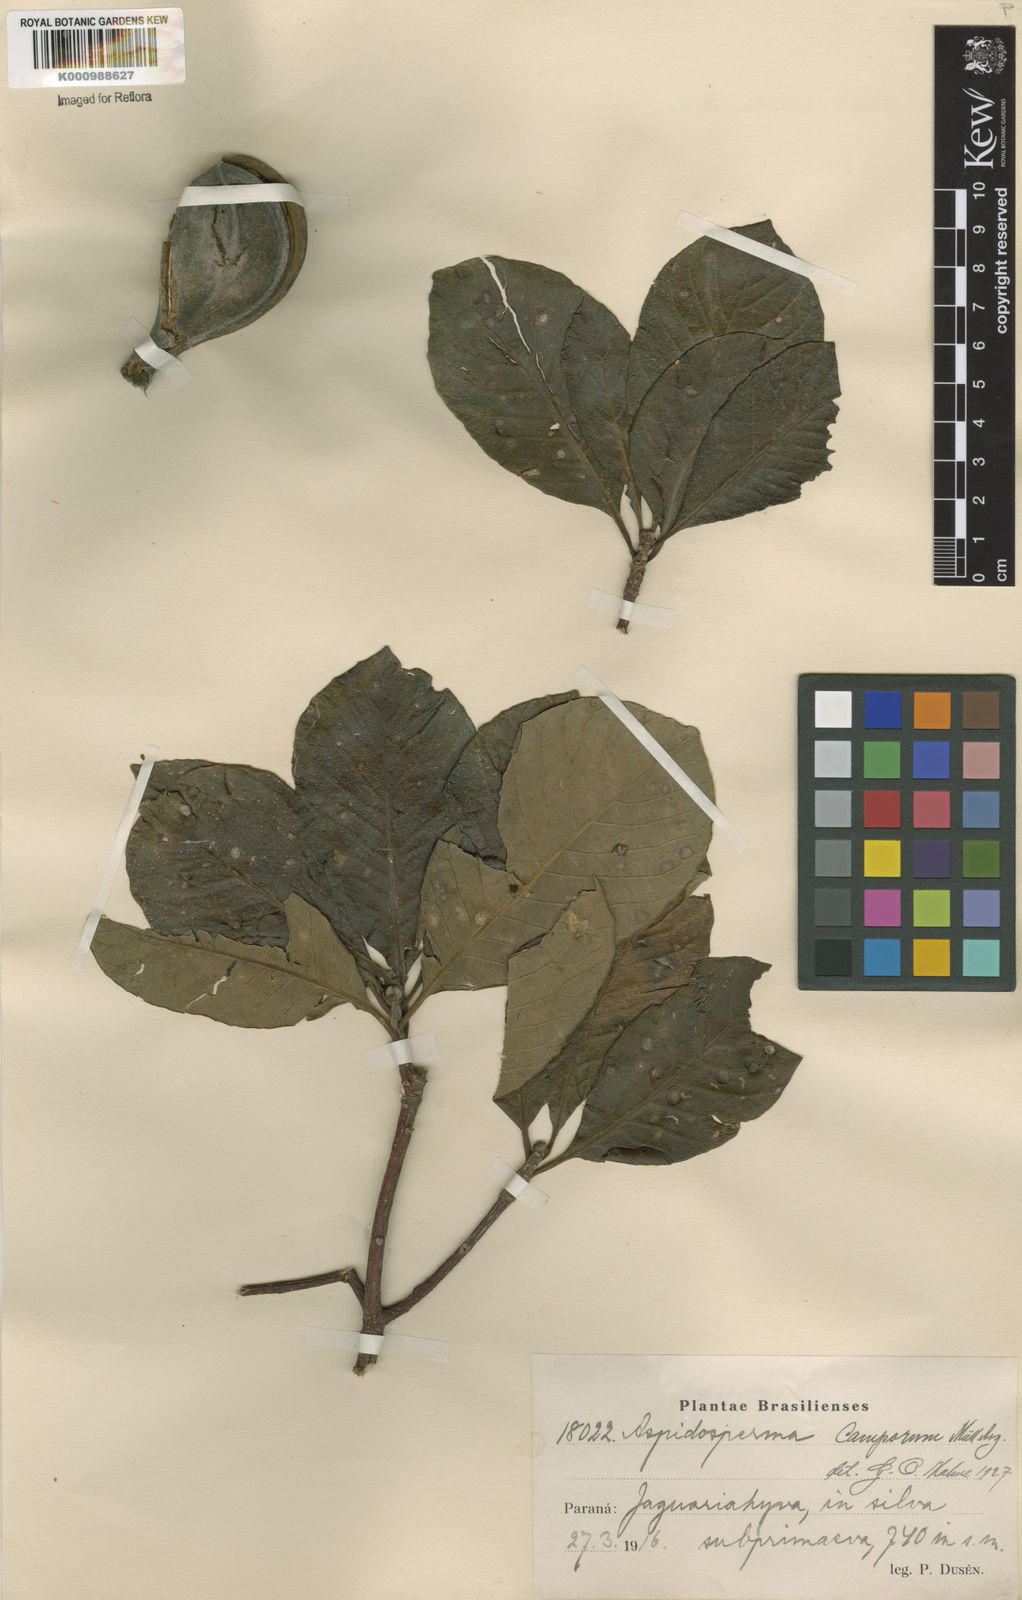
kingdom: Plantae
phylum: Tracheophyta
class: Magnoliopsida
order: Gentianales
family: Apocynaceae
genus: Aspidosperma
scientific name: Aspidosperma tomentosum
